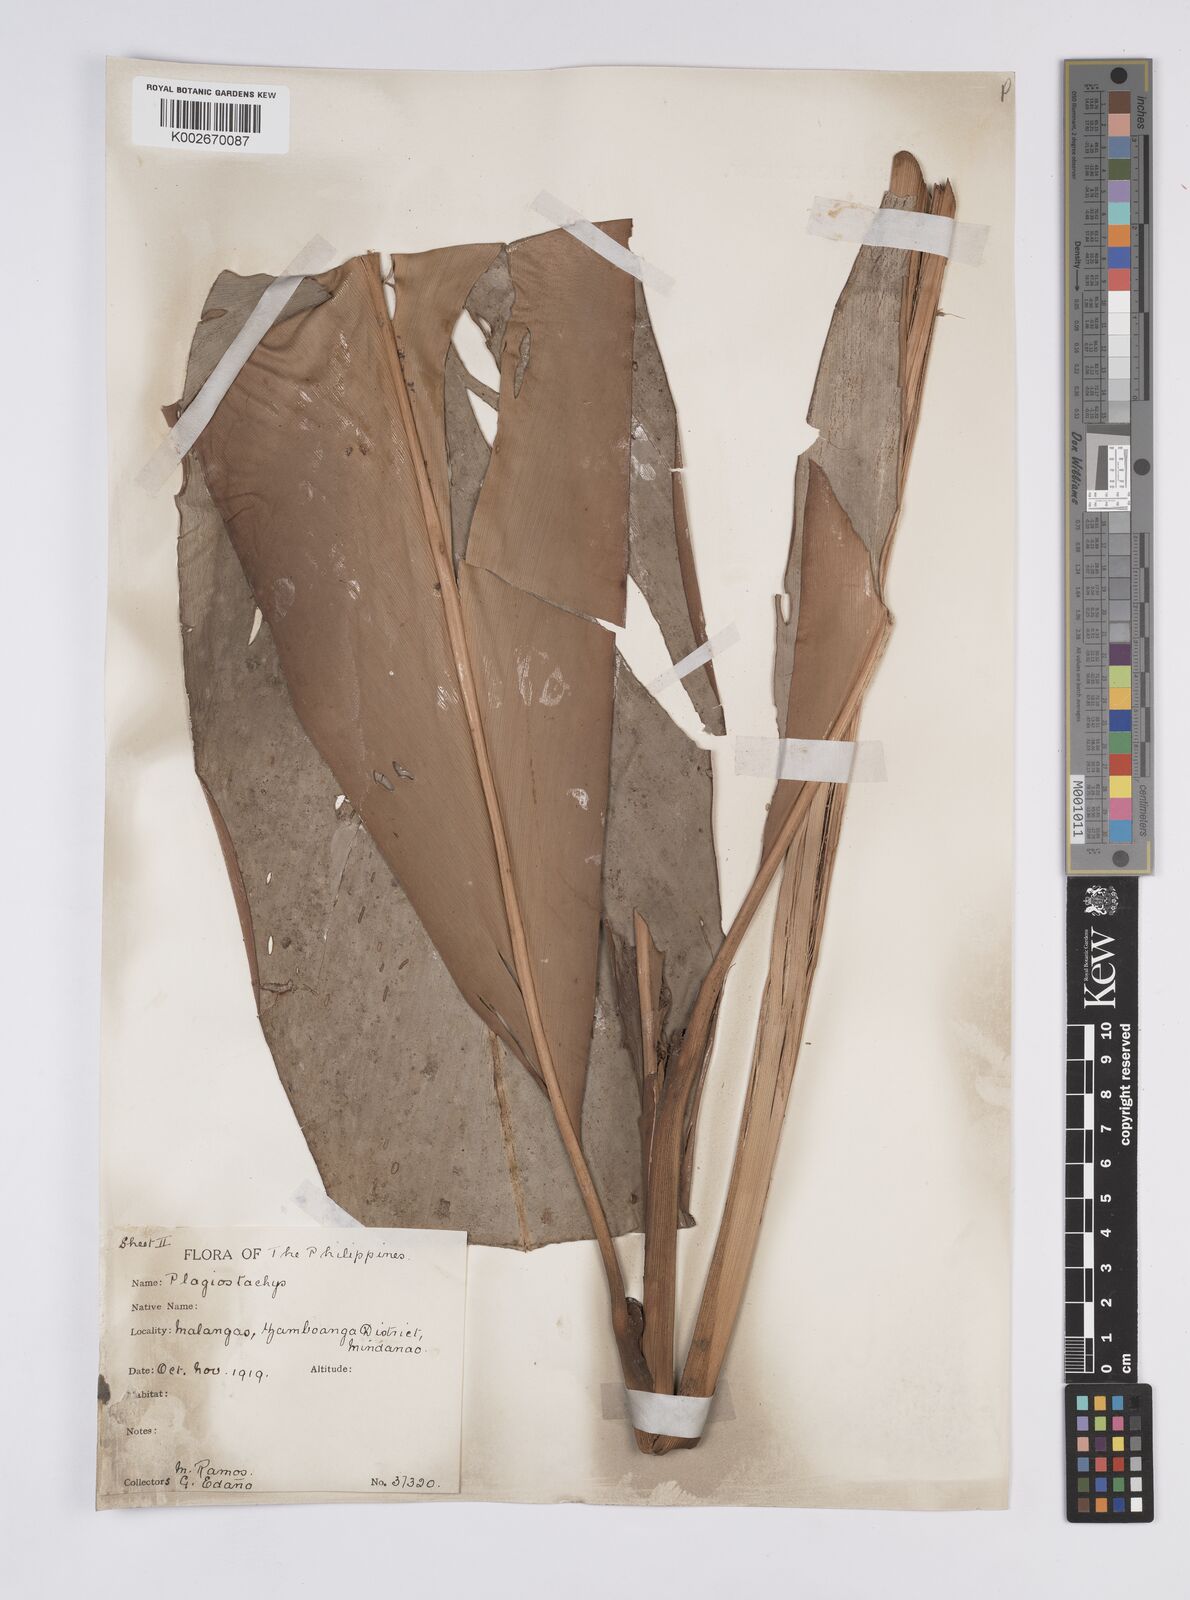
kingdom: Plantae
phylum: Tracheophyta
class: Liliopsida
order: Zingiberales
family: Zingiberaceae
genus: Plagiostachys
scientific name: Plagiostachys
